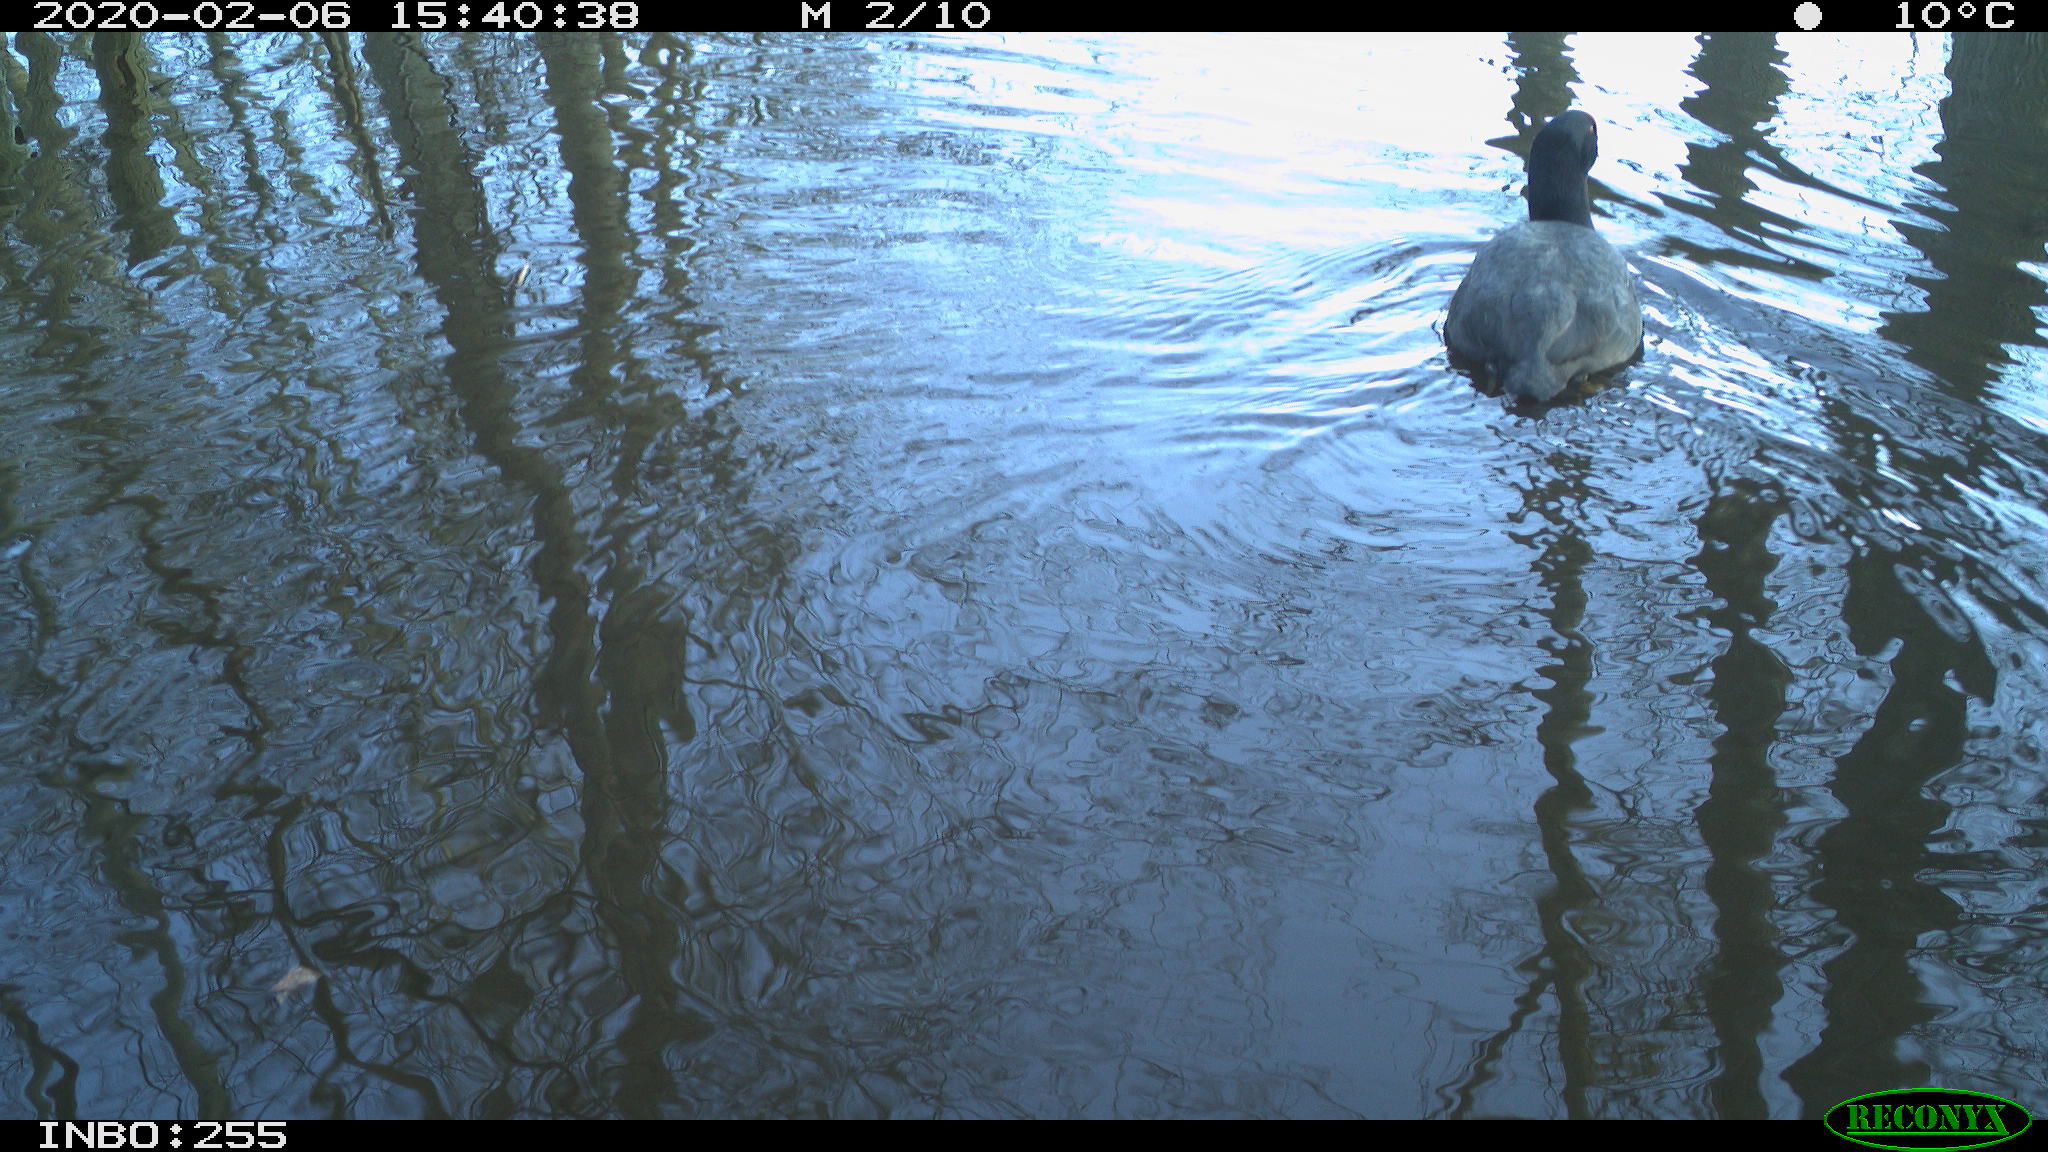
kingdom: Animalia
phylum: Chordata
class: Aves
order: Gruiformes
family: Rallidae
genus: Fulica
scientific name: Fulica atra
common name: Eurasian coot
